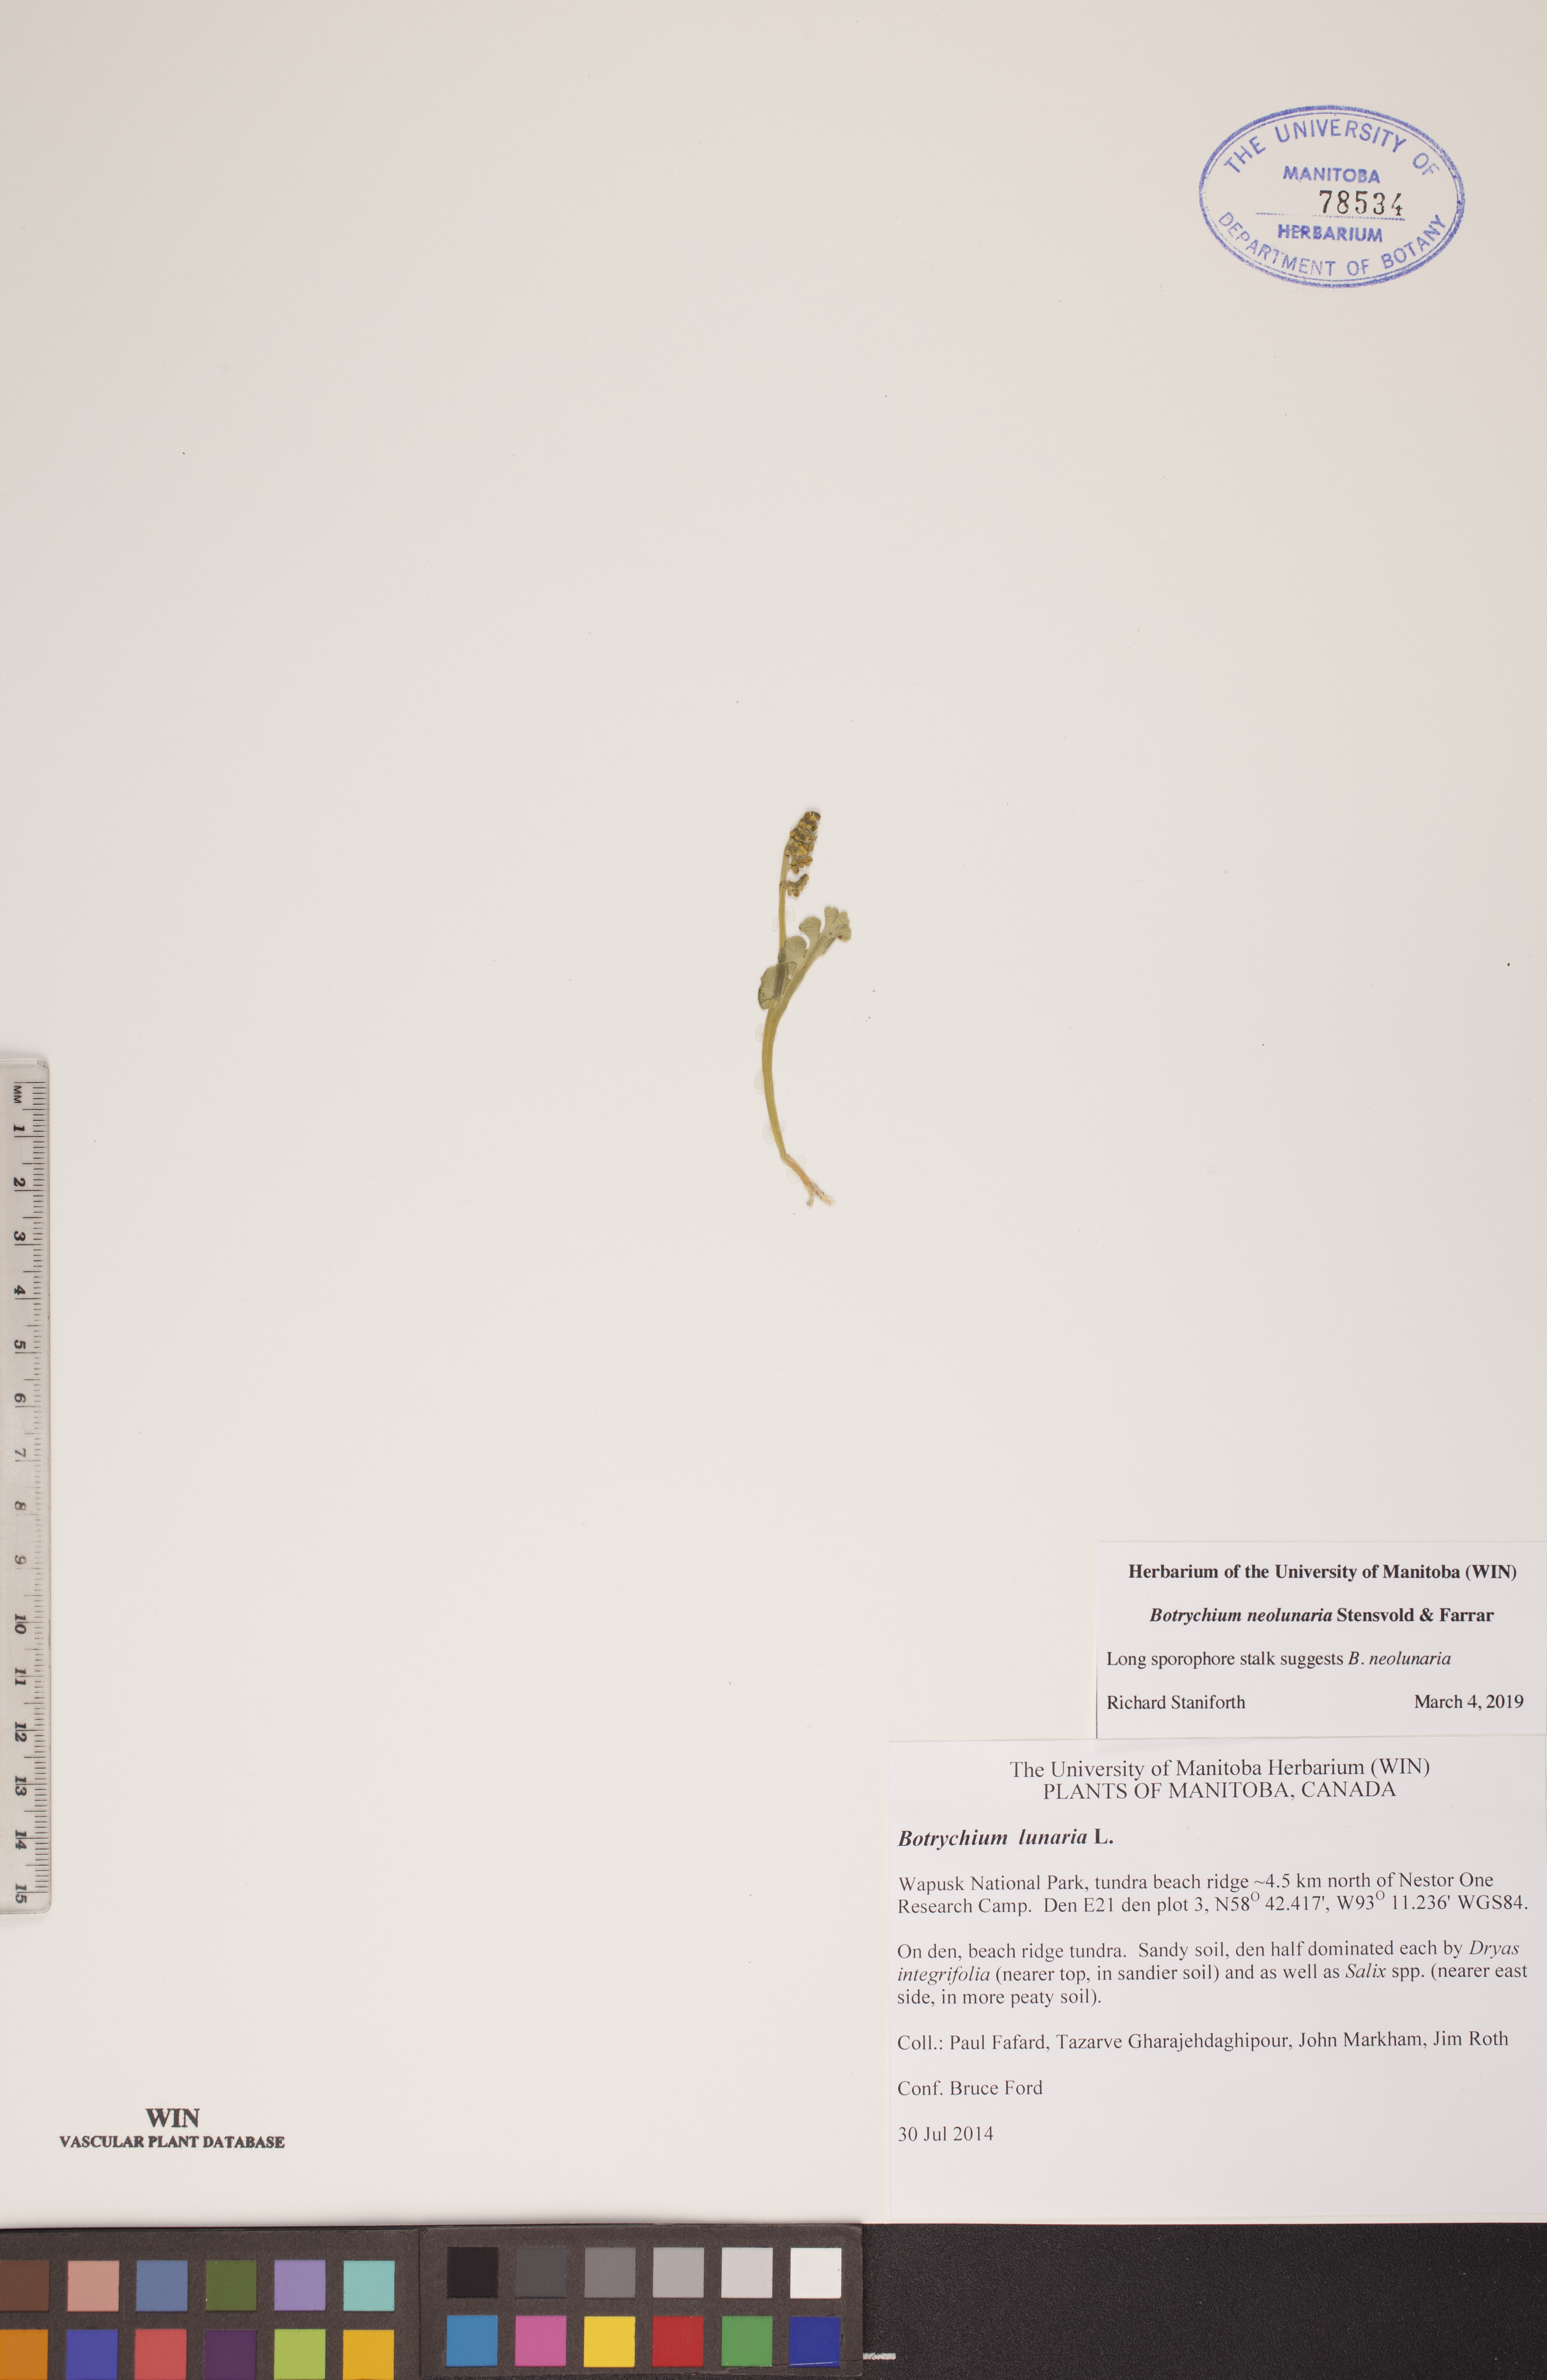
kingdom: Plantae
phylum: Tracheophyta
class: Polypodiopsida
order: Ophioglossales
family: Ophioglossaceae
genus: Botrychium
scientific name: Botrychium neolunaria
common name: New world moonwort
